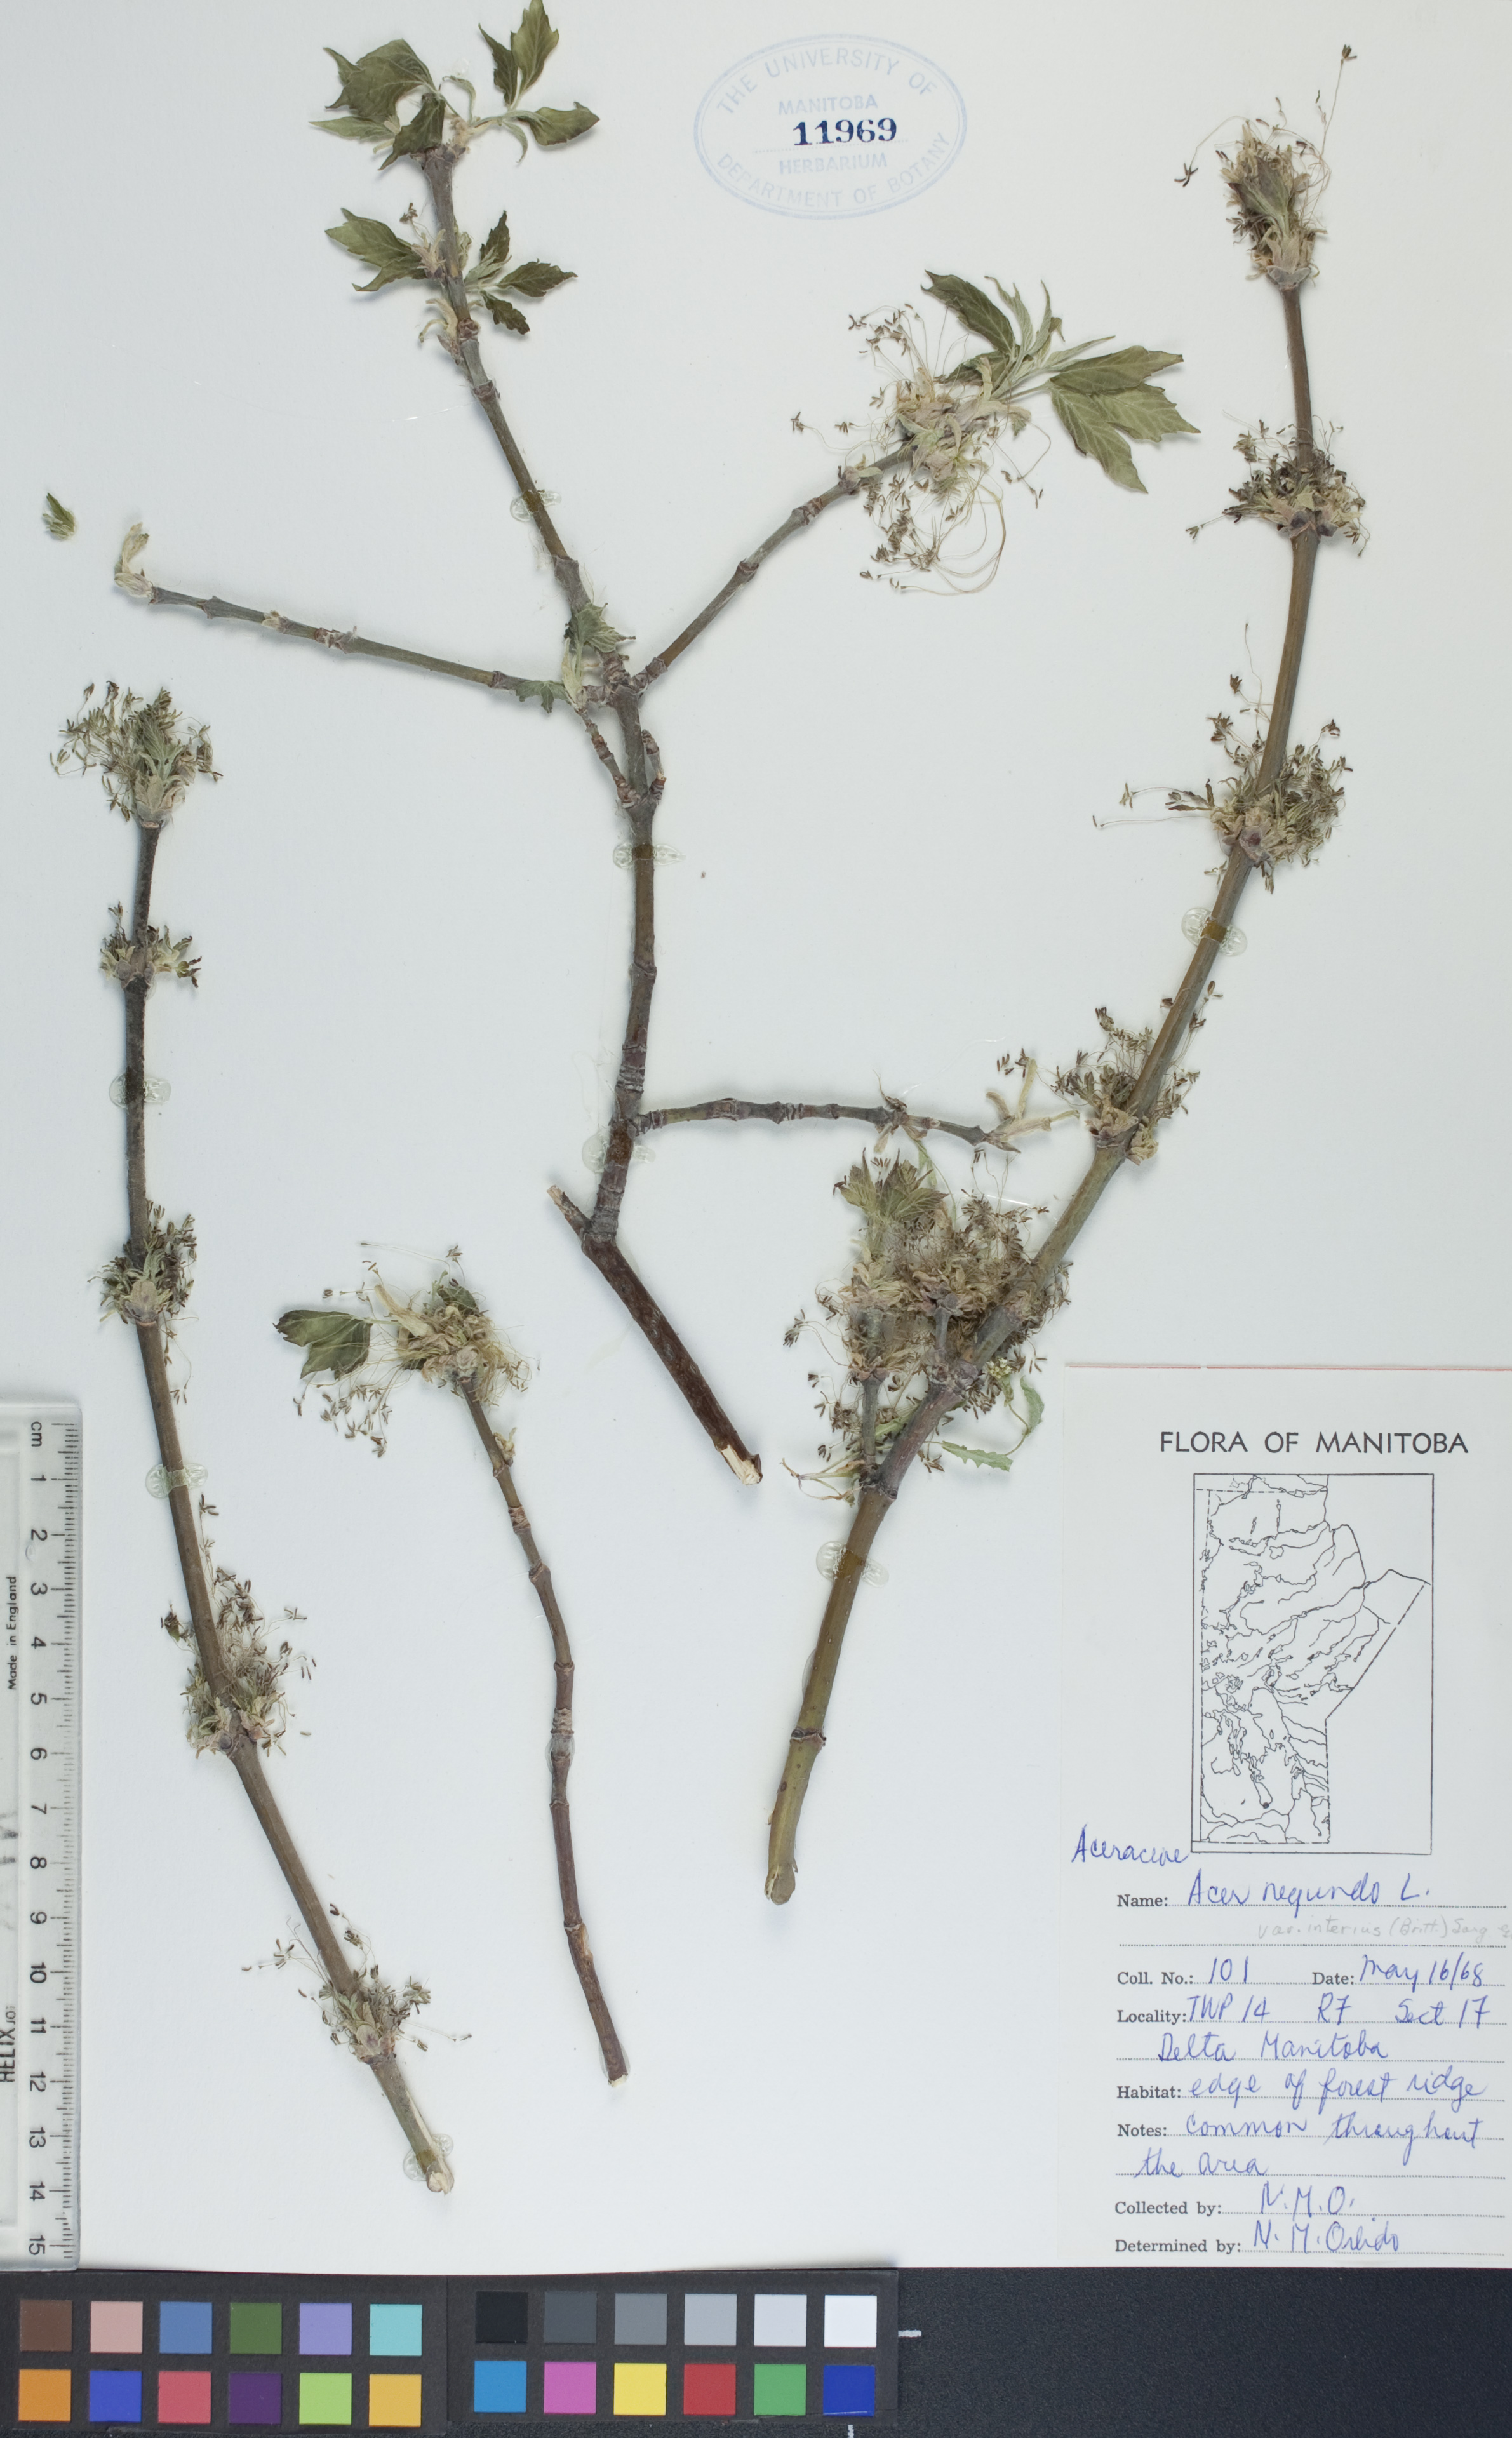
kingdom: Plantae
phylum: Tracheophyta
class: Magnoliopsida
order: Sapindales
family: Sapindaceae
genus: Acer
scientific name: Acer negundo
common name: Ashleaf maple
